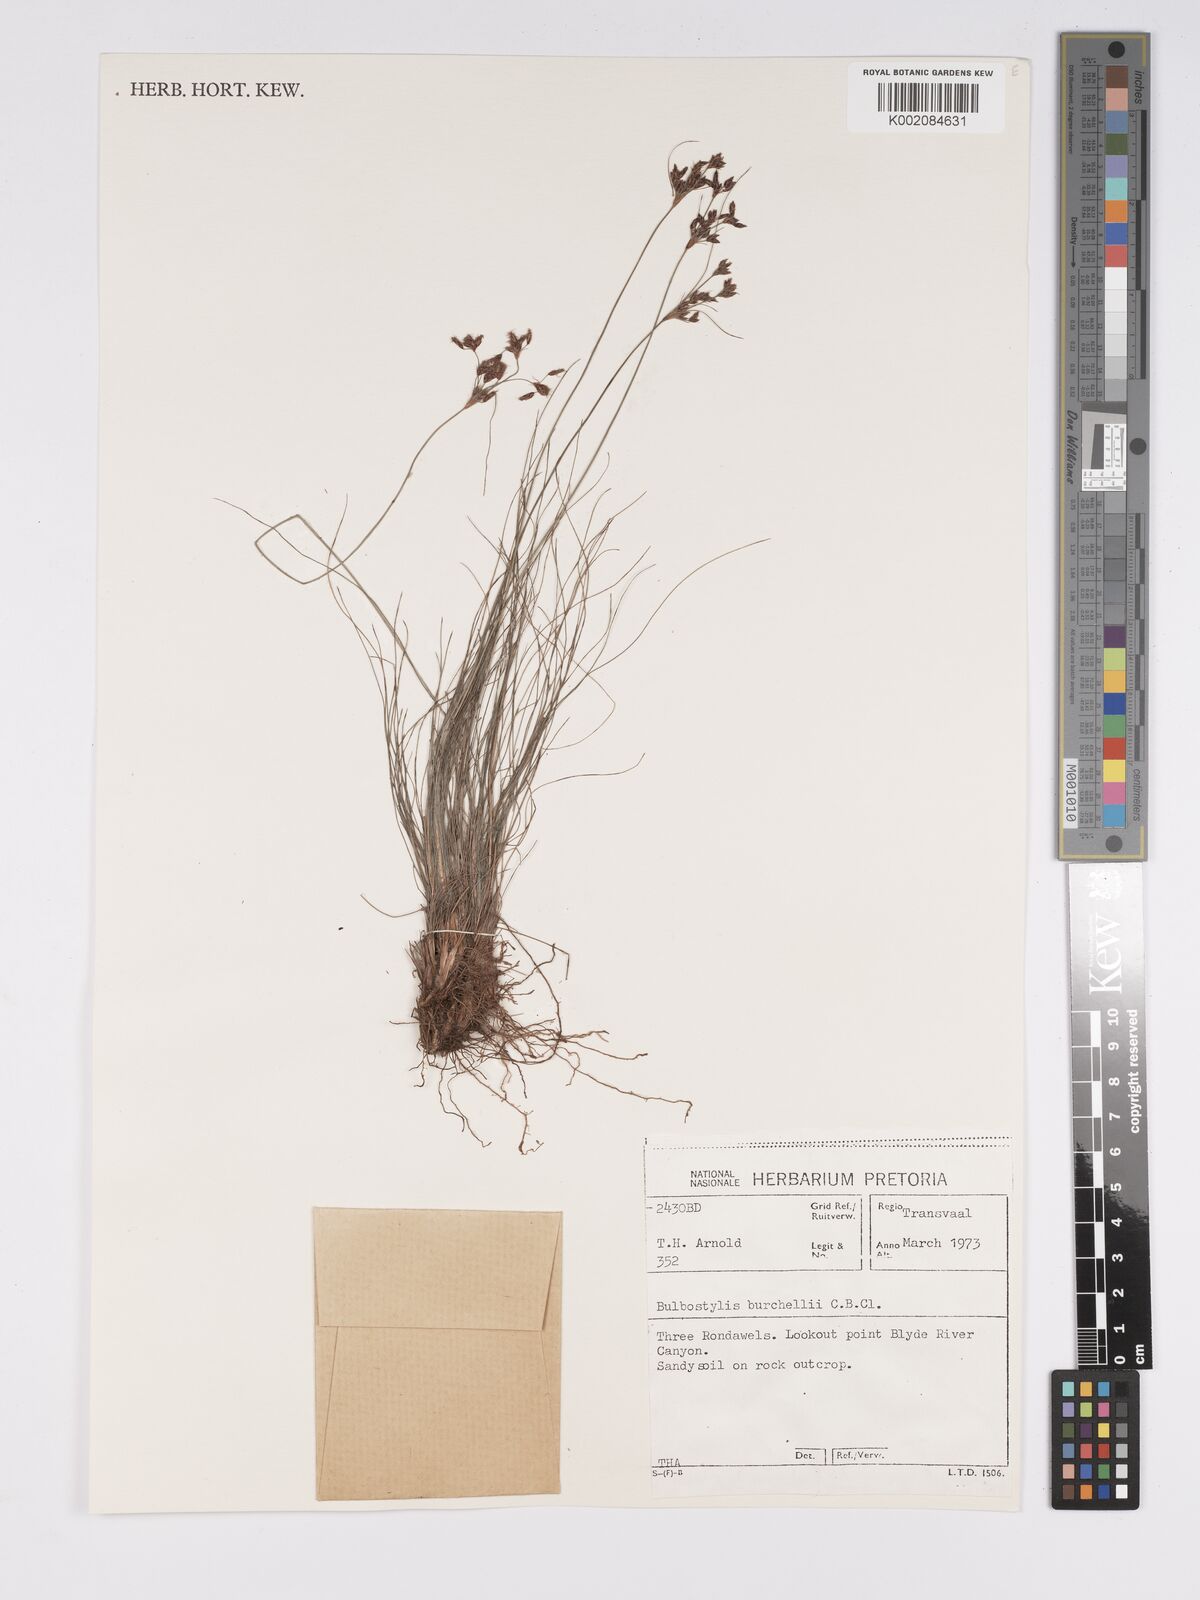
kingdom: Plantae
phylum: Tracheophyta
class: Liliopsida
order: Poales
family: Cyperaceae
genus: Bulbostylis
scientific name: Bulbostylis
